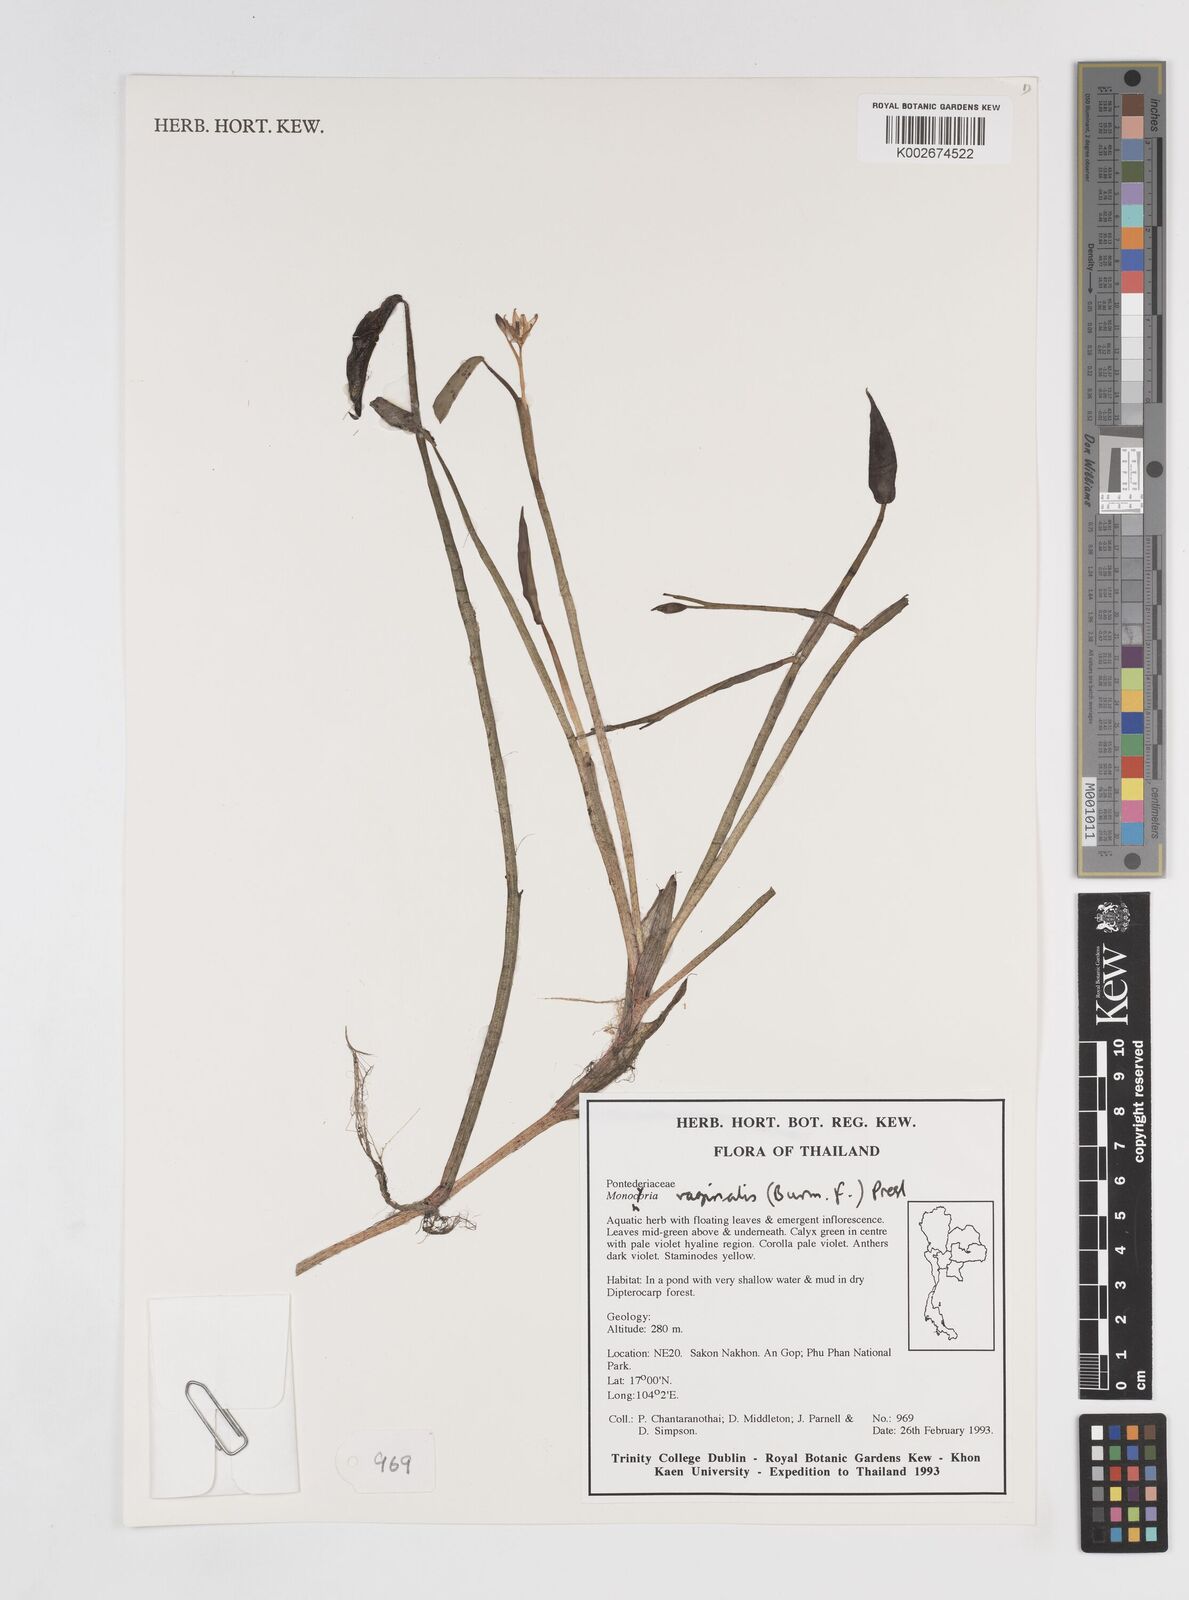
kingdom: Plantae
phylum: Tracheophyta
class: Liliopsida
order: Commelinales
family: Pontederiaceae
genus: Pontederia
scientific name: Pontederia vaginalis
